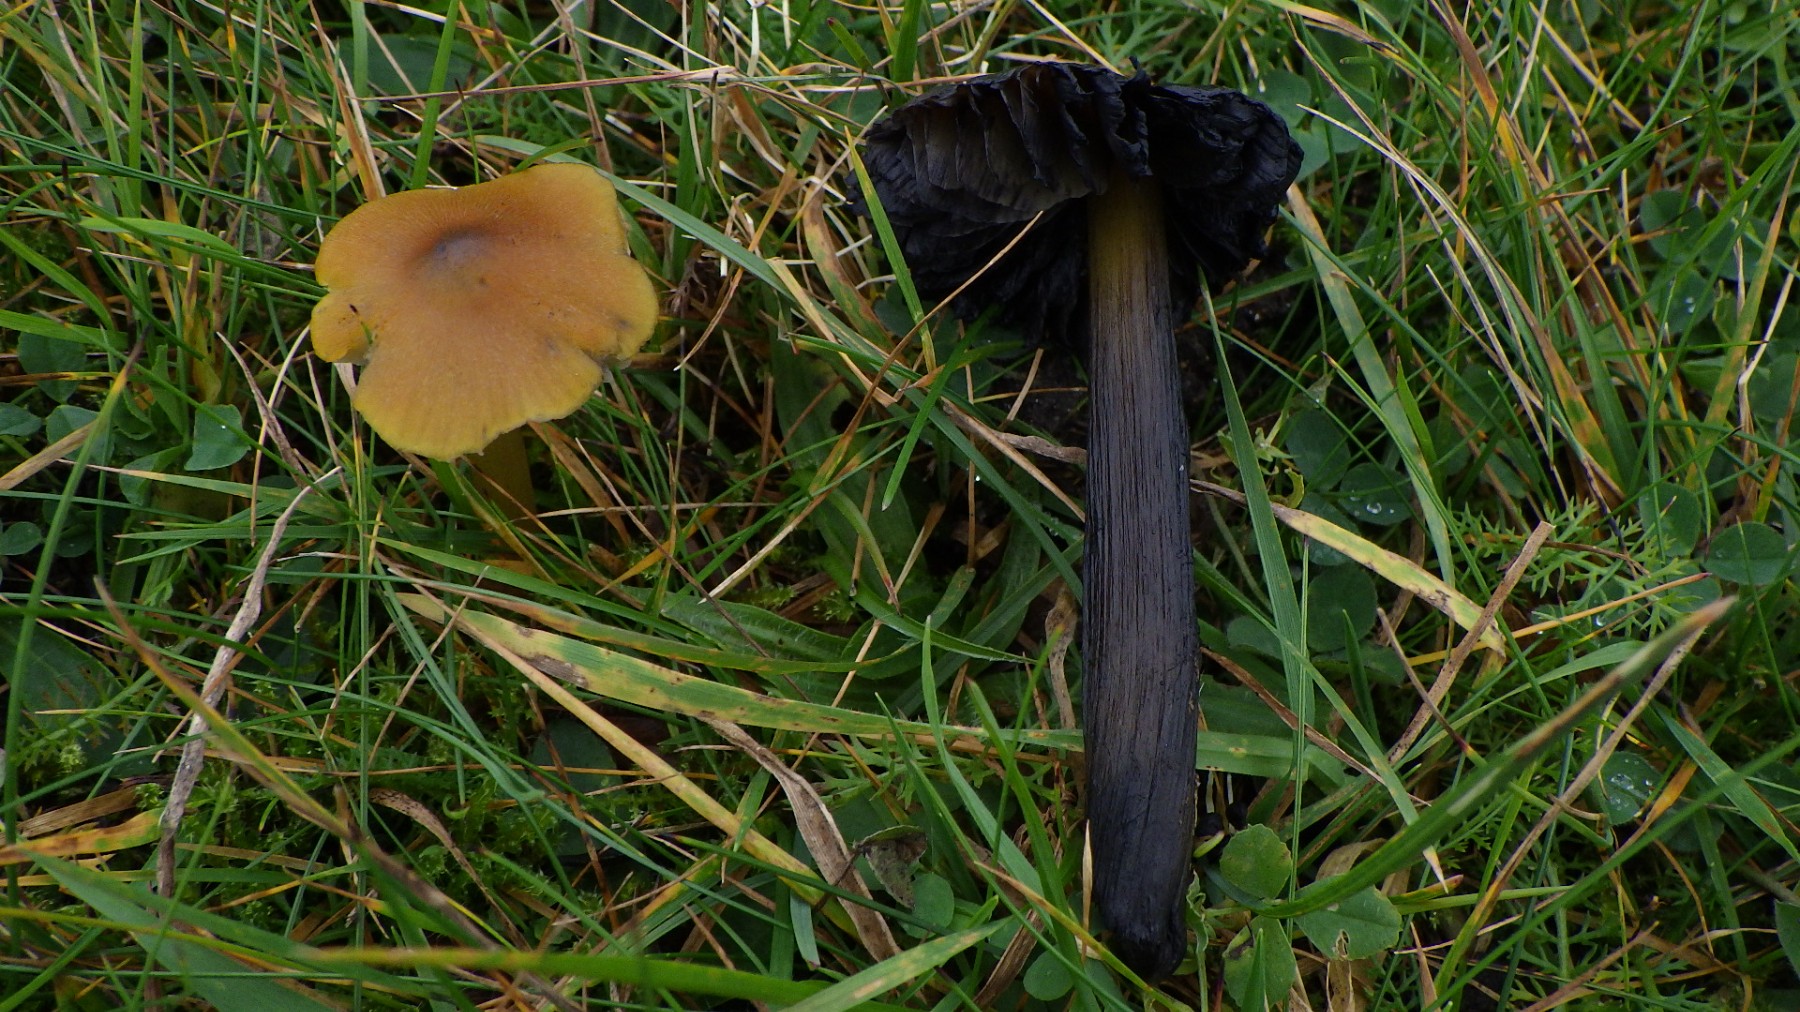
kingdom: Fungi
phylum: Basidiomycota
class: Agaricomycetes
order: Agaricales
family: Hygrophoraceae
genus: Hygrocybe
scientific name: Hygrocybe conica
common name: kegle-vokshat
